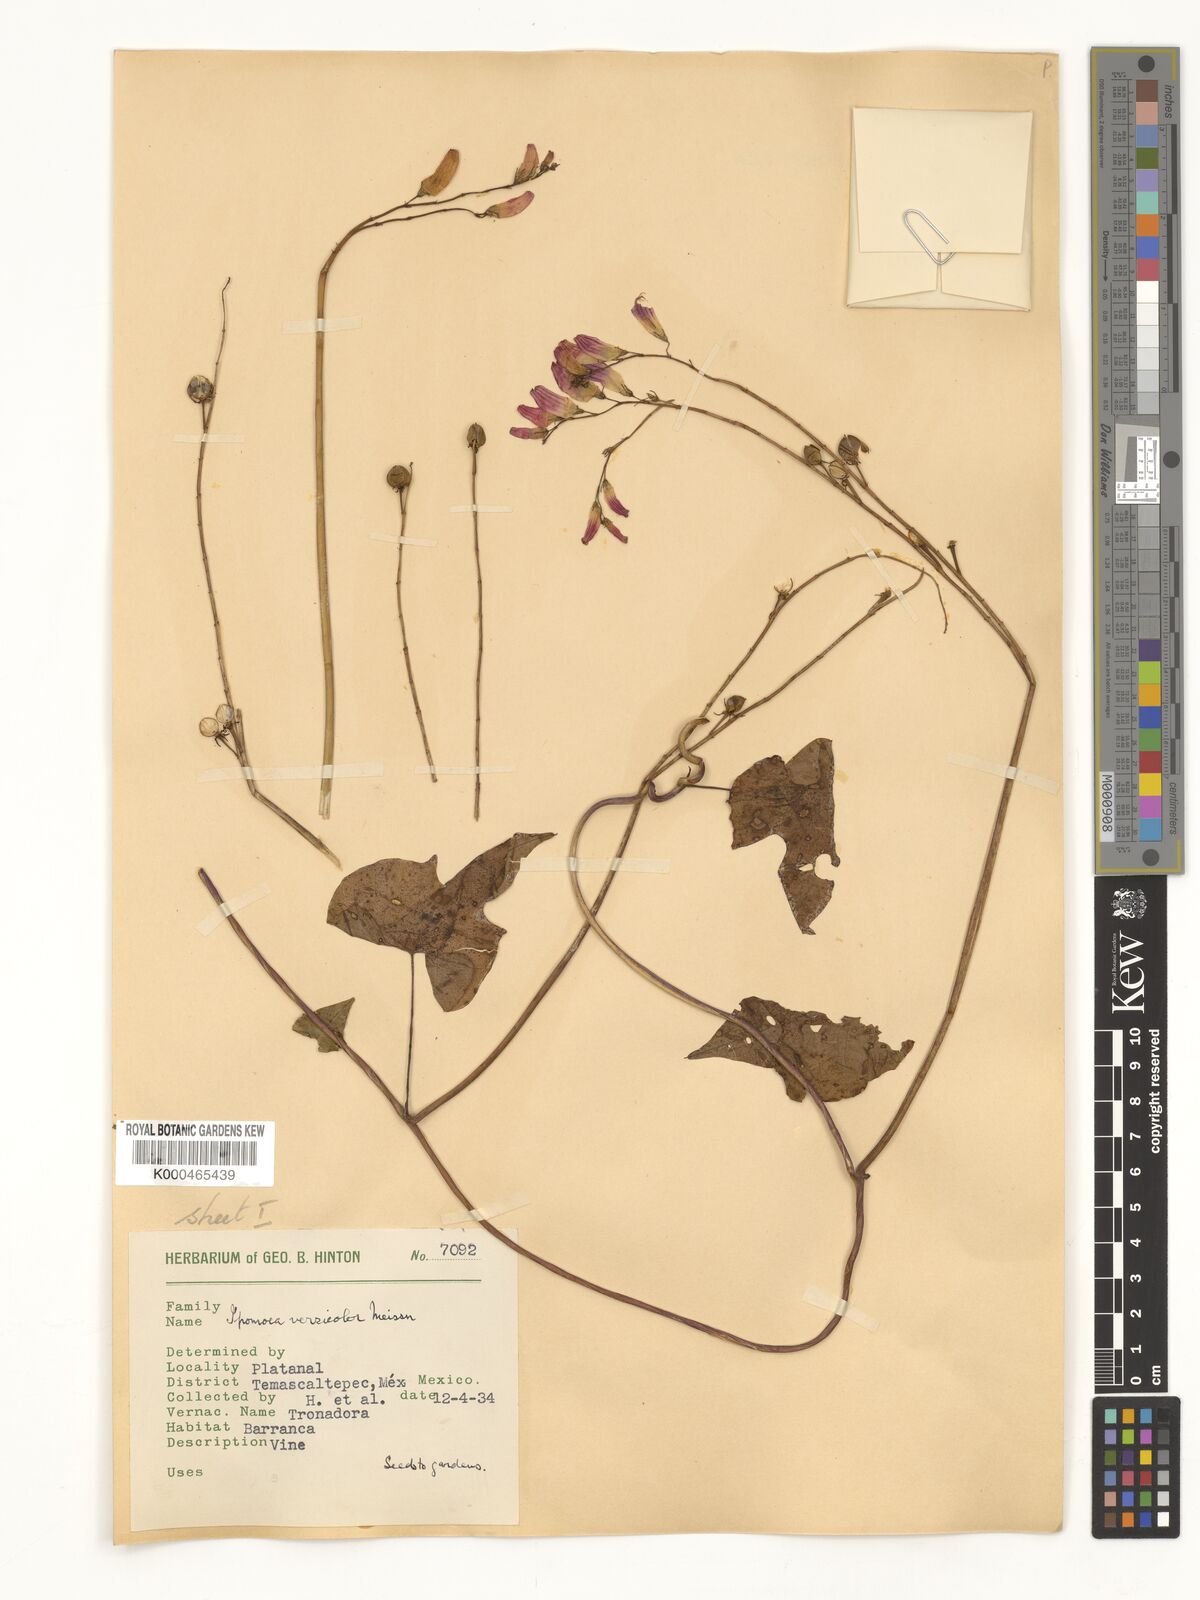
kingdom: Plantae
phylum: Tracheophyta
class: Magnoliopsida
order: Solanales
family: Convolvulaceae
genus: Ipomoea
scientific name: Ipomoea lobata
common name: Spanish-flag
